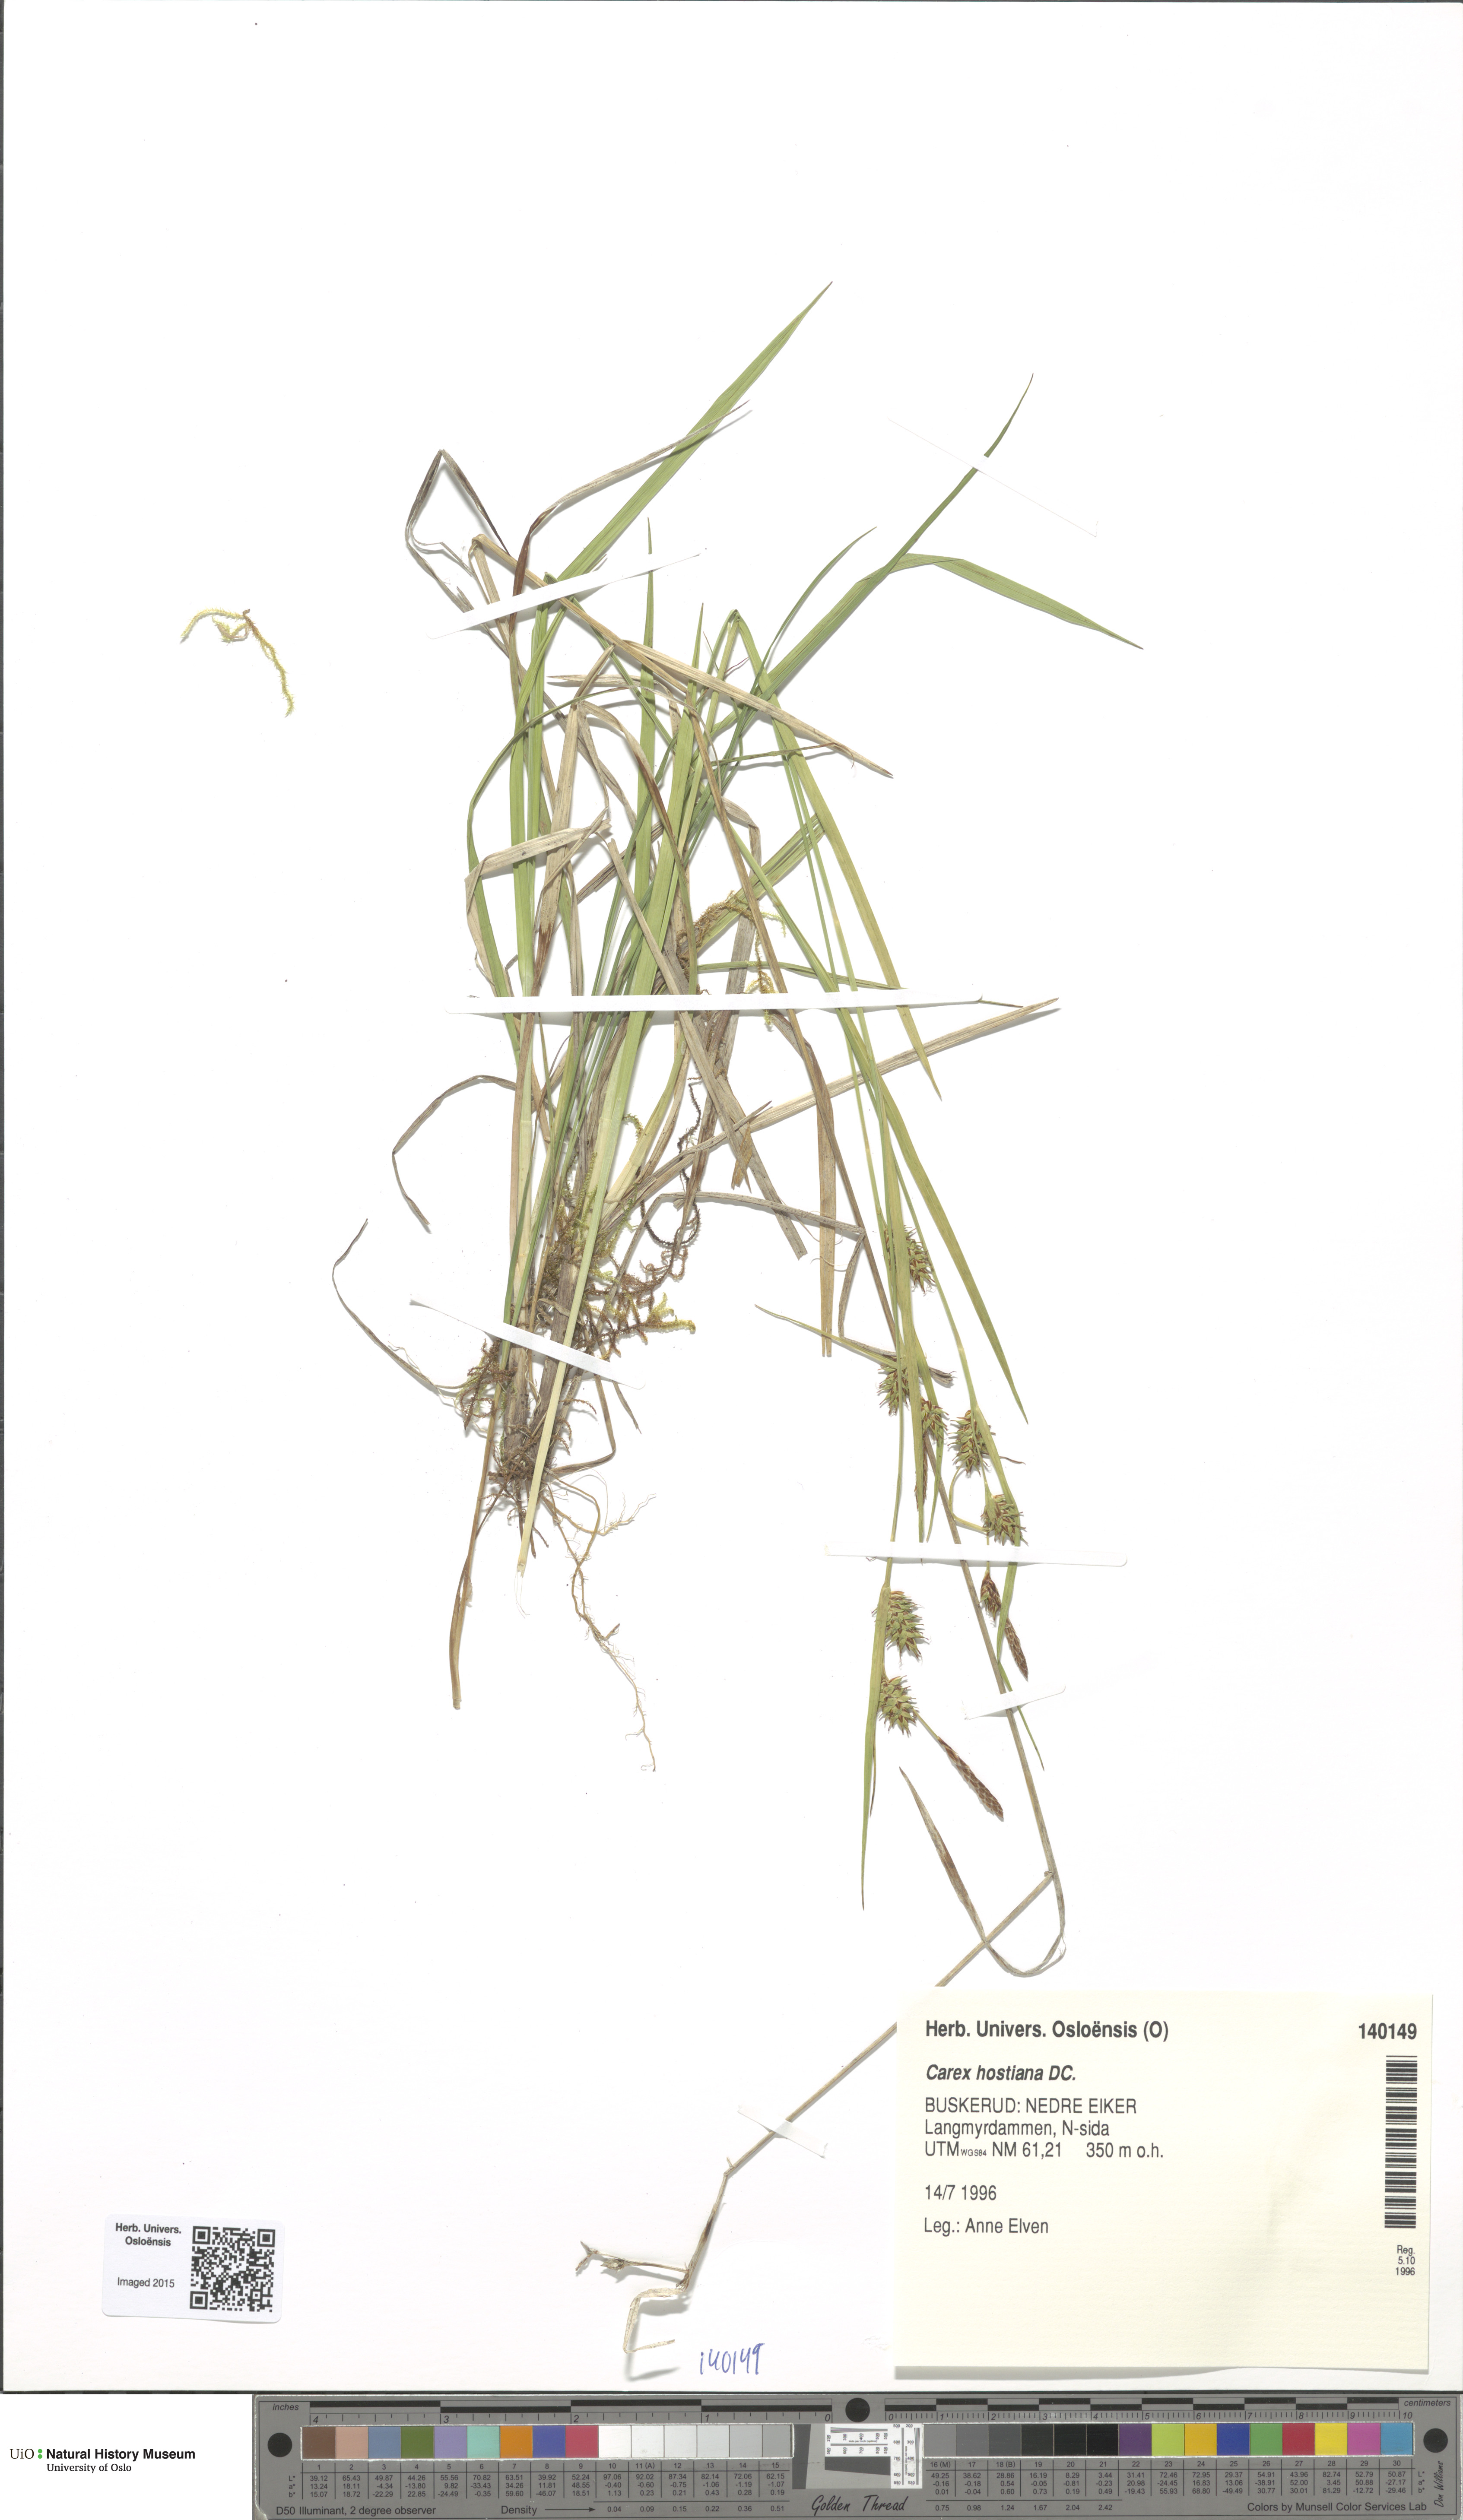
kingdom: Plantae
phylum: Tracheophyta
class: Liliopsida
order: Poales
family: Cyperaceae
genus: Carex
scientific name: Carex hostiana
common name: Tawny sedge
